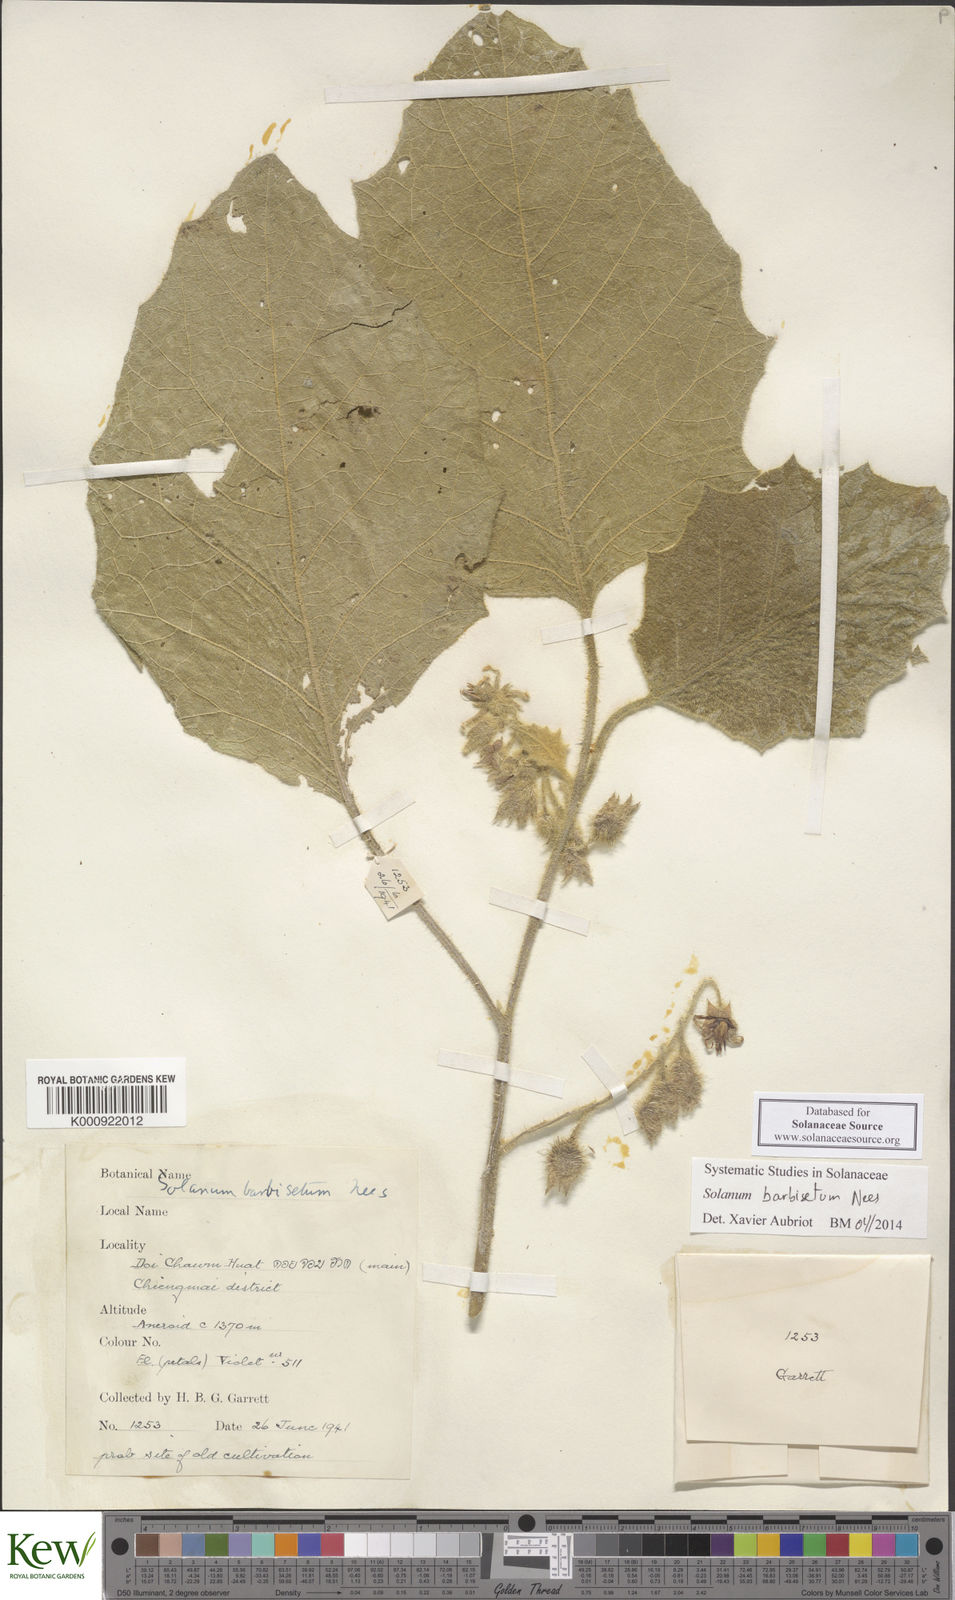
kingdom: Plantae
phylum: Tracheophyta
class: Magnoliopsida
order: Solanales
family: Solanaceae
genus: Solanum
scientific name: Solanum barbisetum
